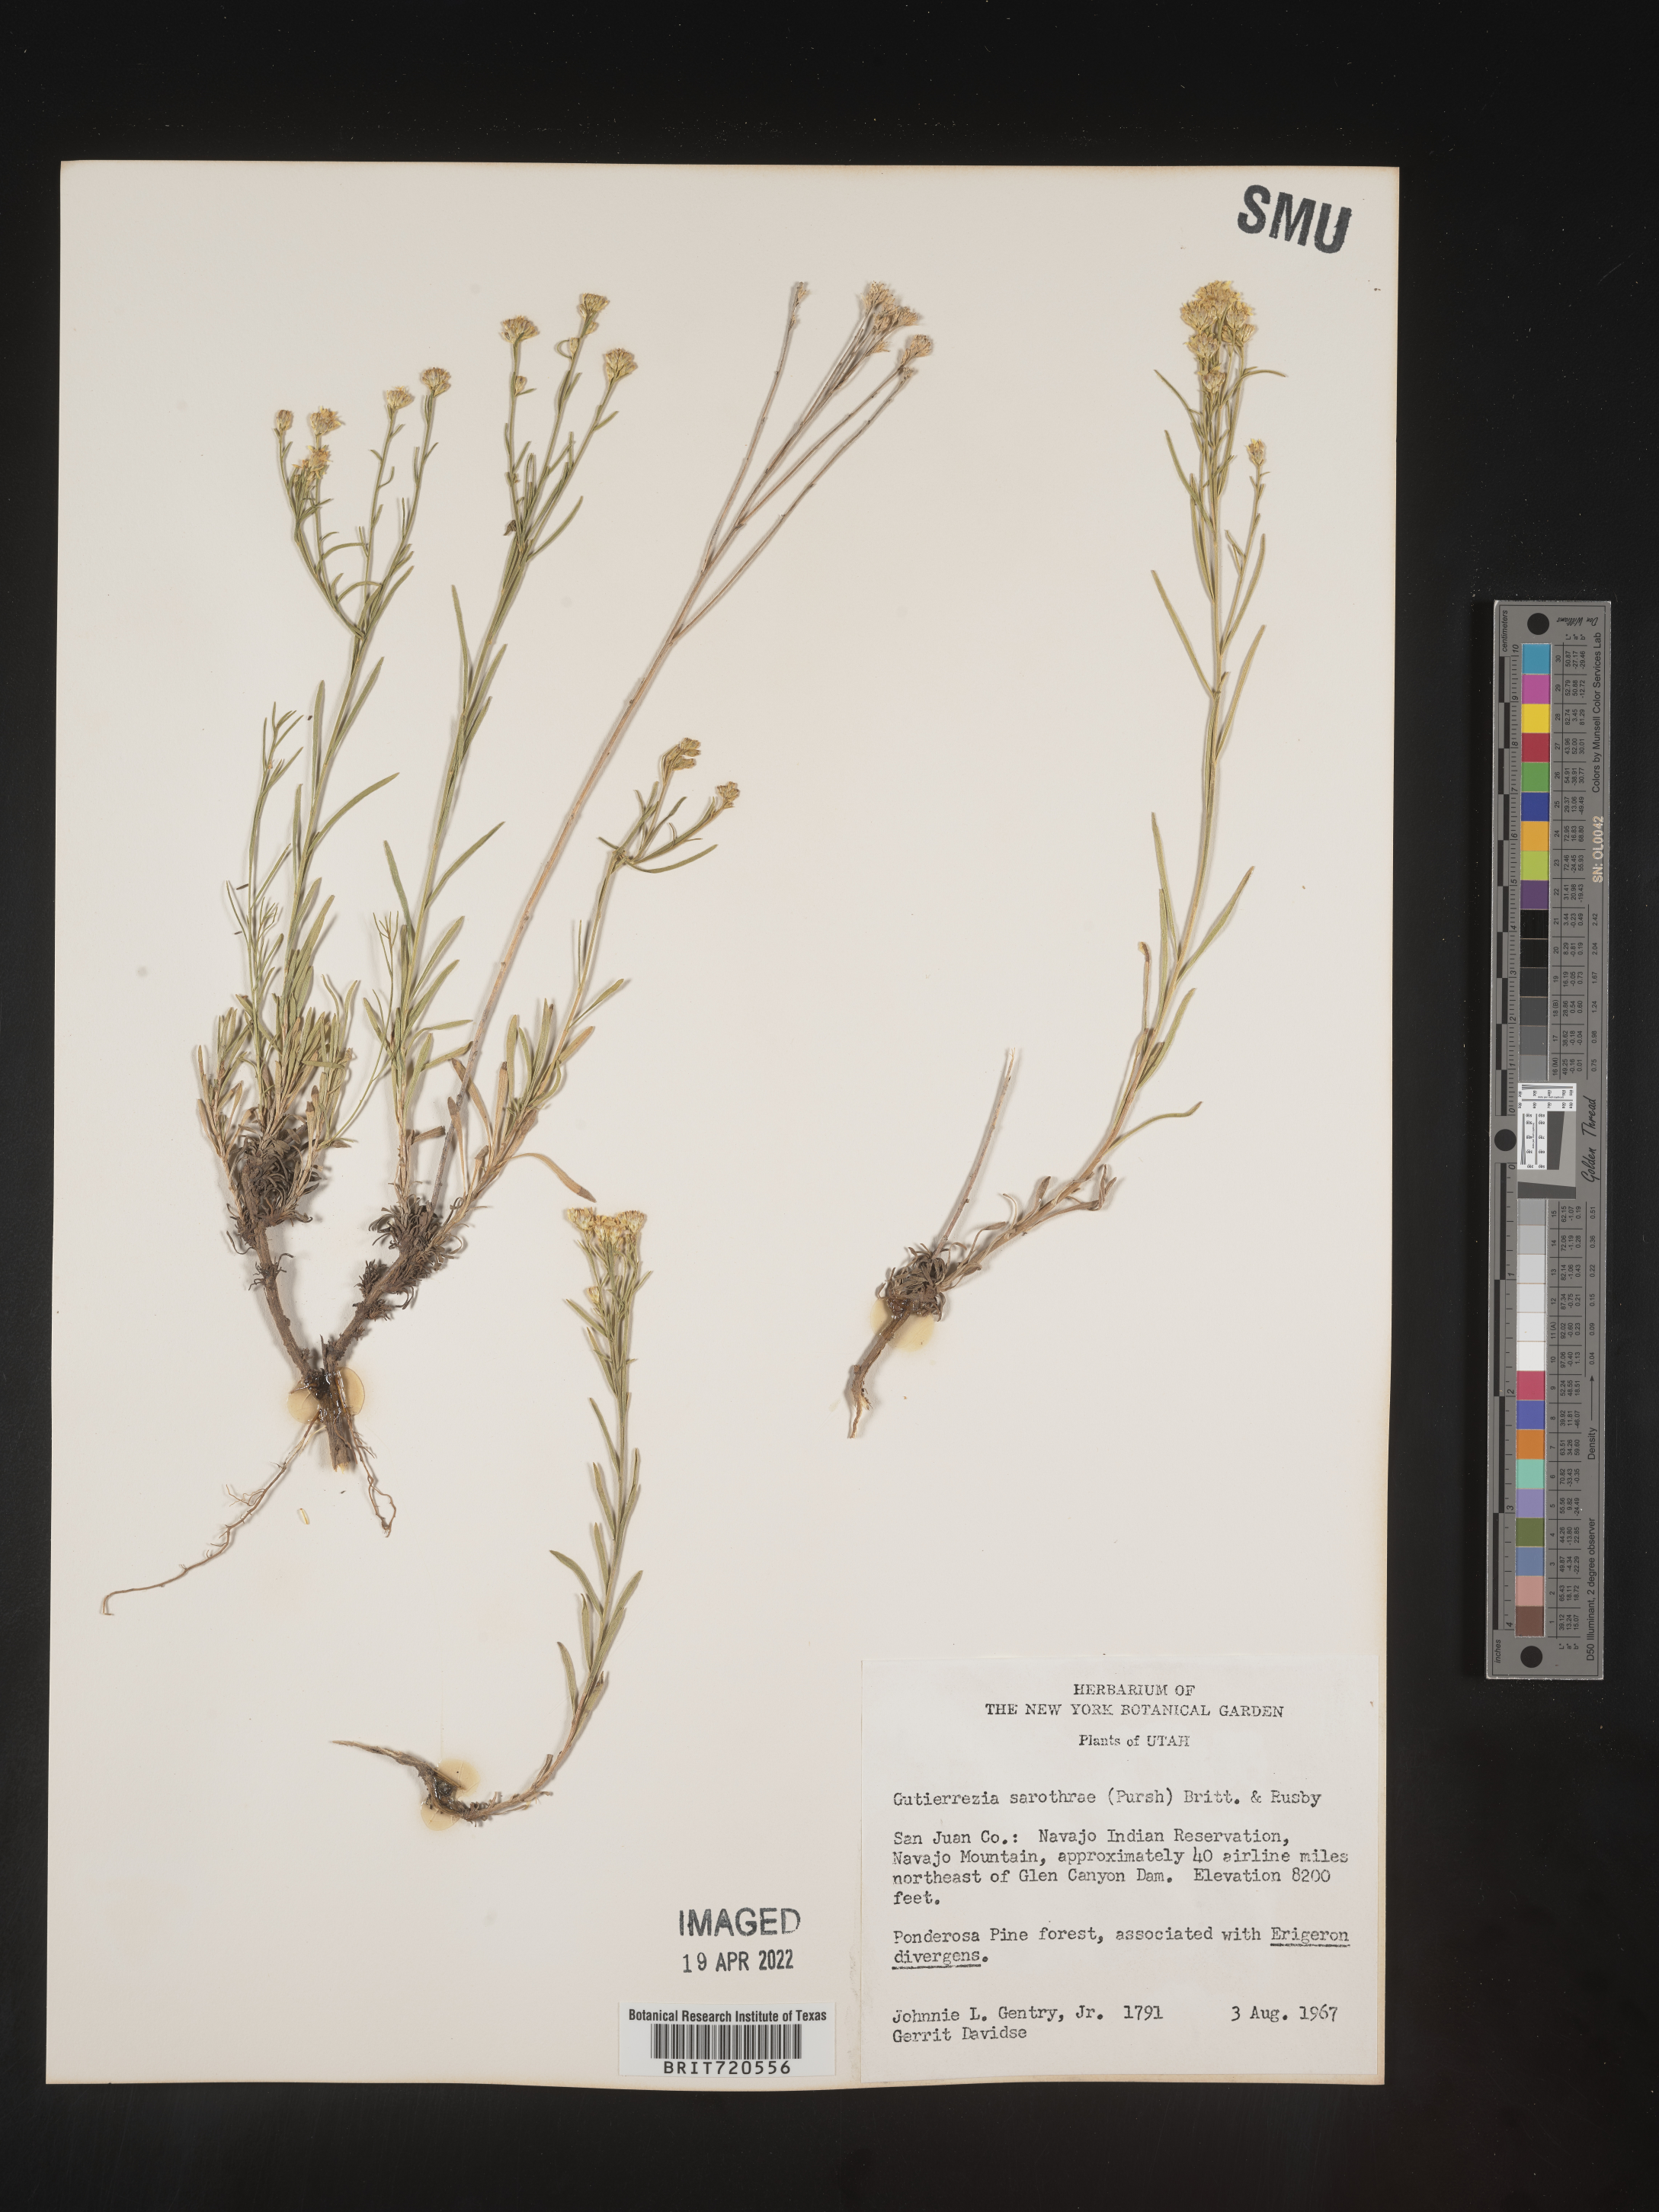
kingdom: Plantae
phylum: Tracheophyta
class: Magnoliopsida
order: Asterales
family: Asteraceae
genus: Gutierrezia
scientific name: Gutierrezia sarothrae
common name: Broom snakeweed
